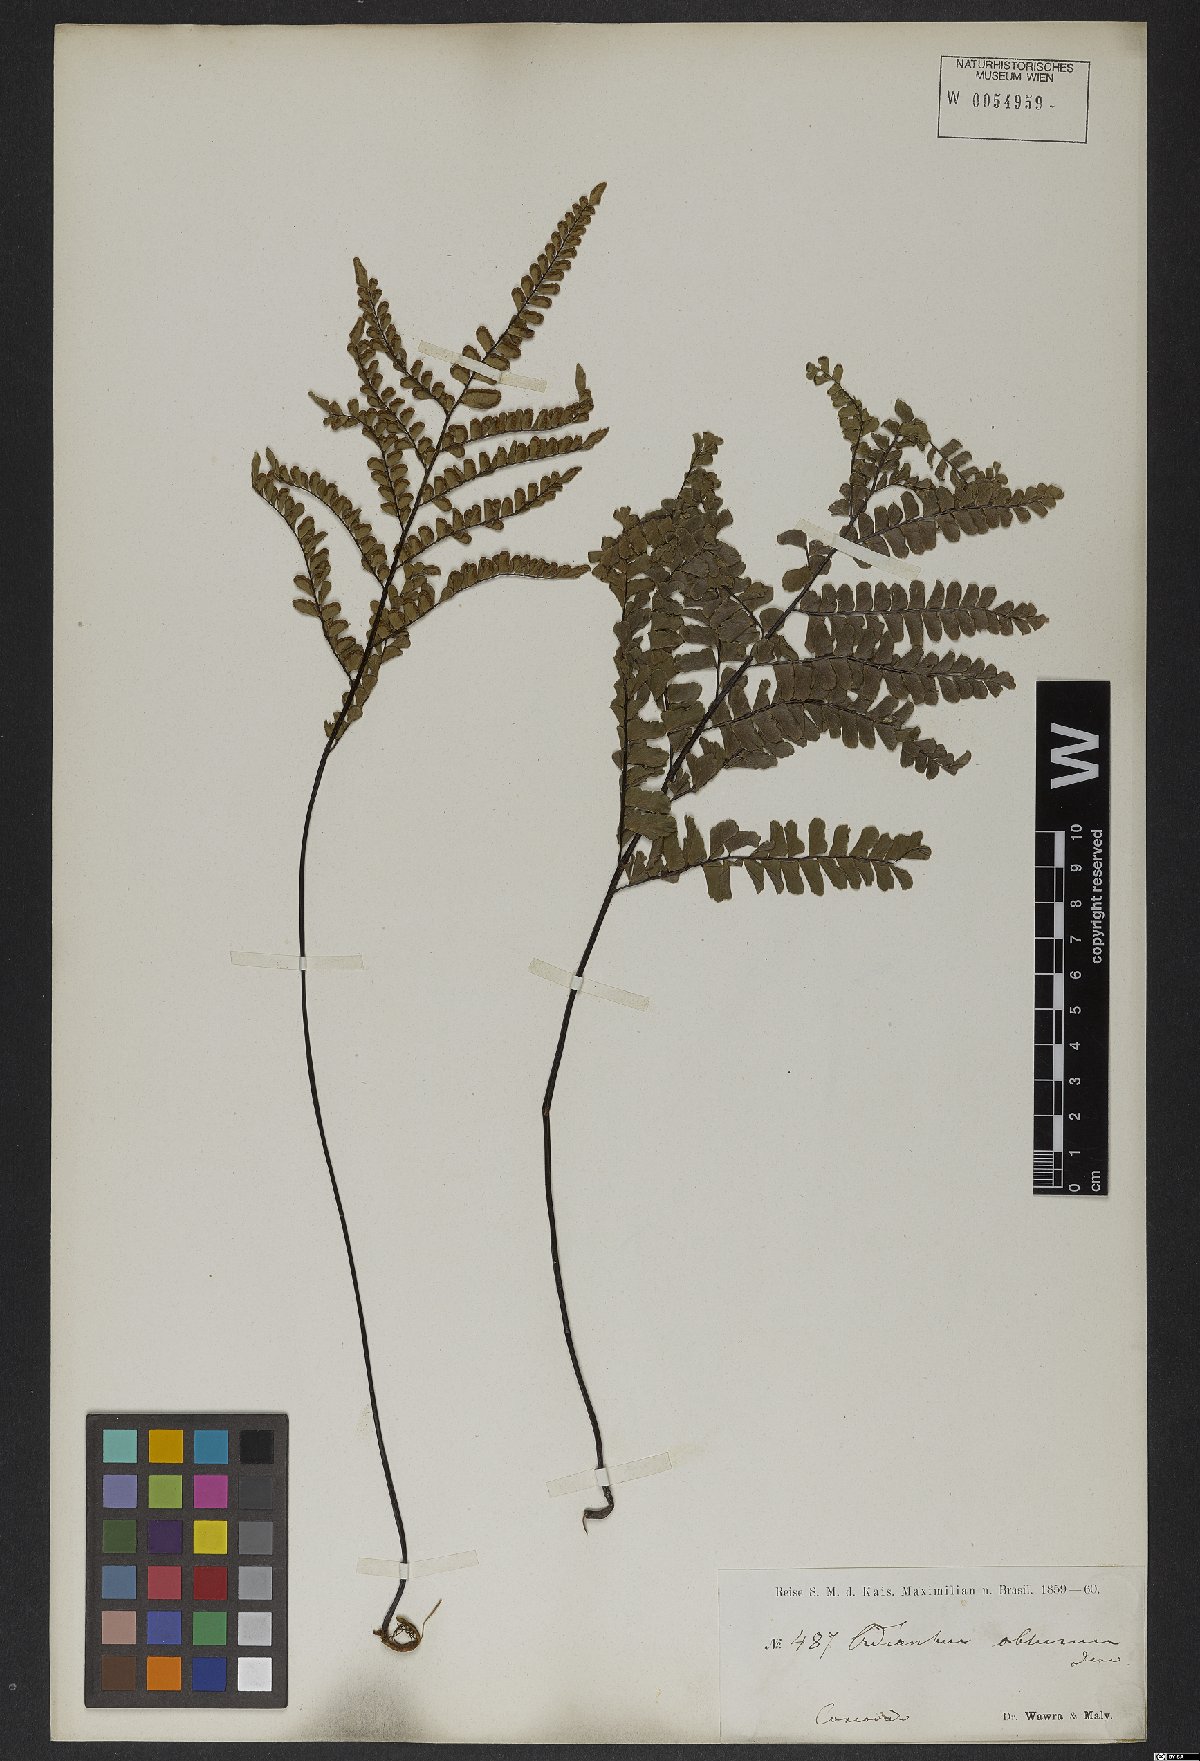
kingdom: Plantae
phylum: Tracheophyta
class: Polypodiopsida
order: Polypodiales
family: Pteridaceae
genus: Adiantum
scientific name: Adiantum serratodentatum
